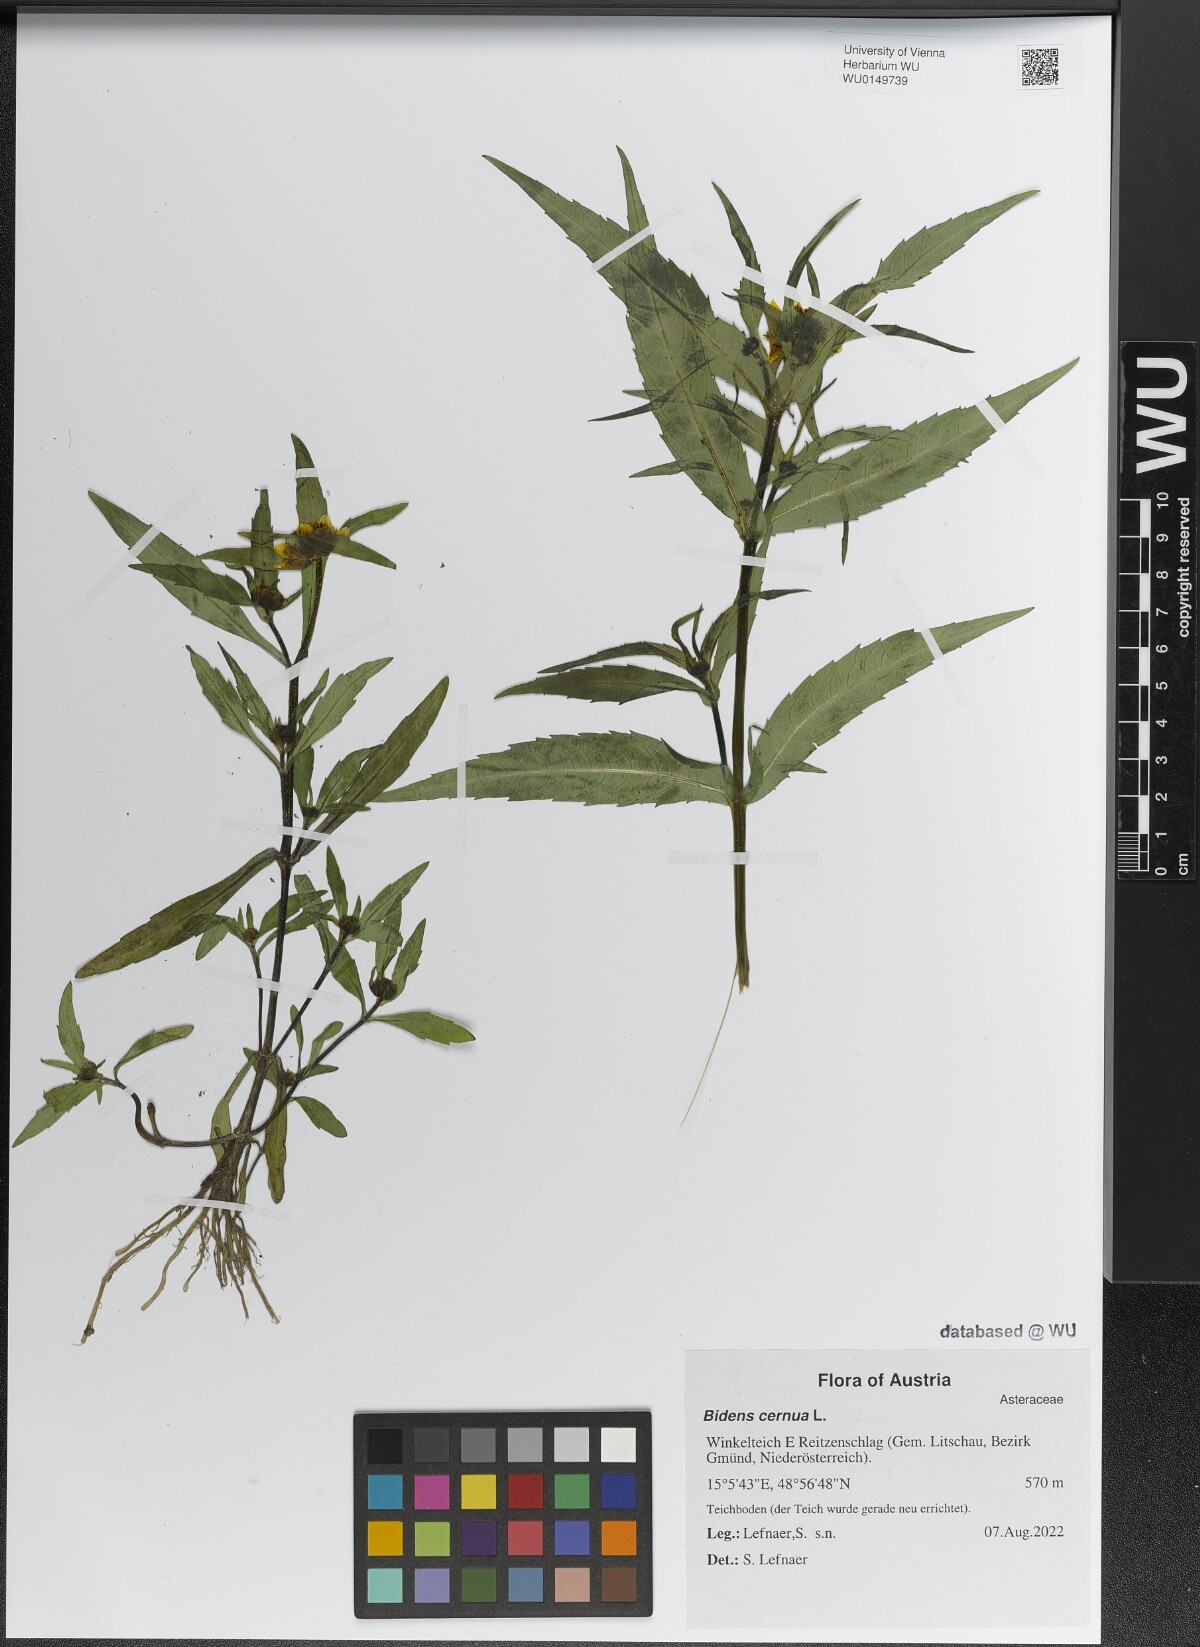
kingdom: Plantae
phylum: Tracheophyta
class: Magnoliopsida
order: Asterales
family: Asteraceae
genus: Bidens
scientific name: Bidens cernua
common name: Nodding bur-marigold
